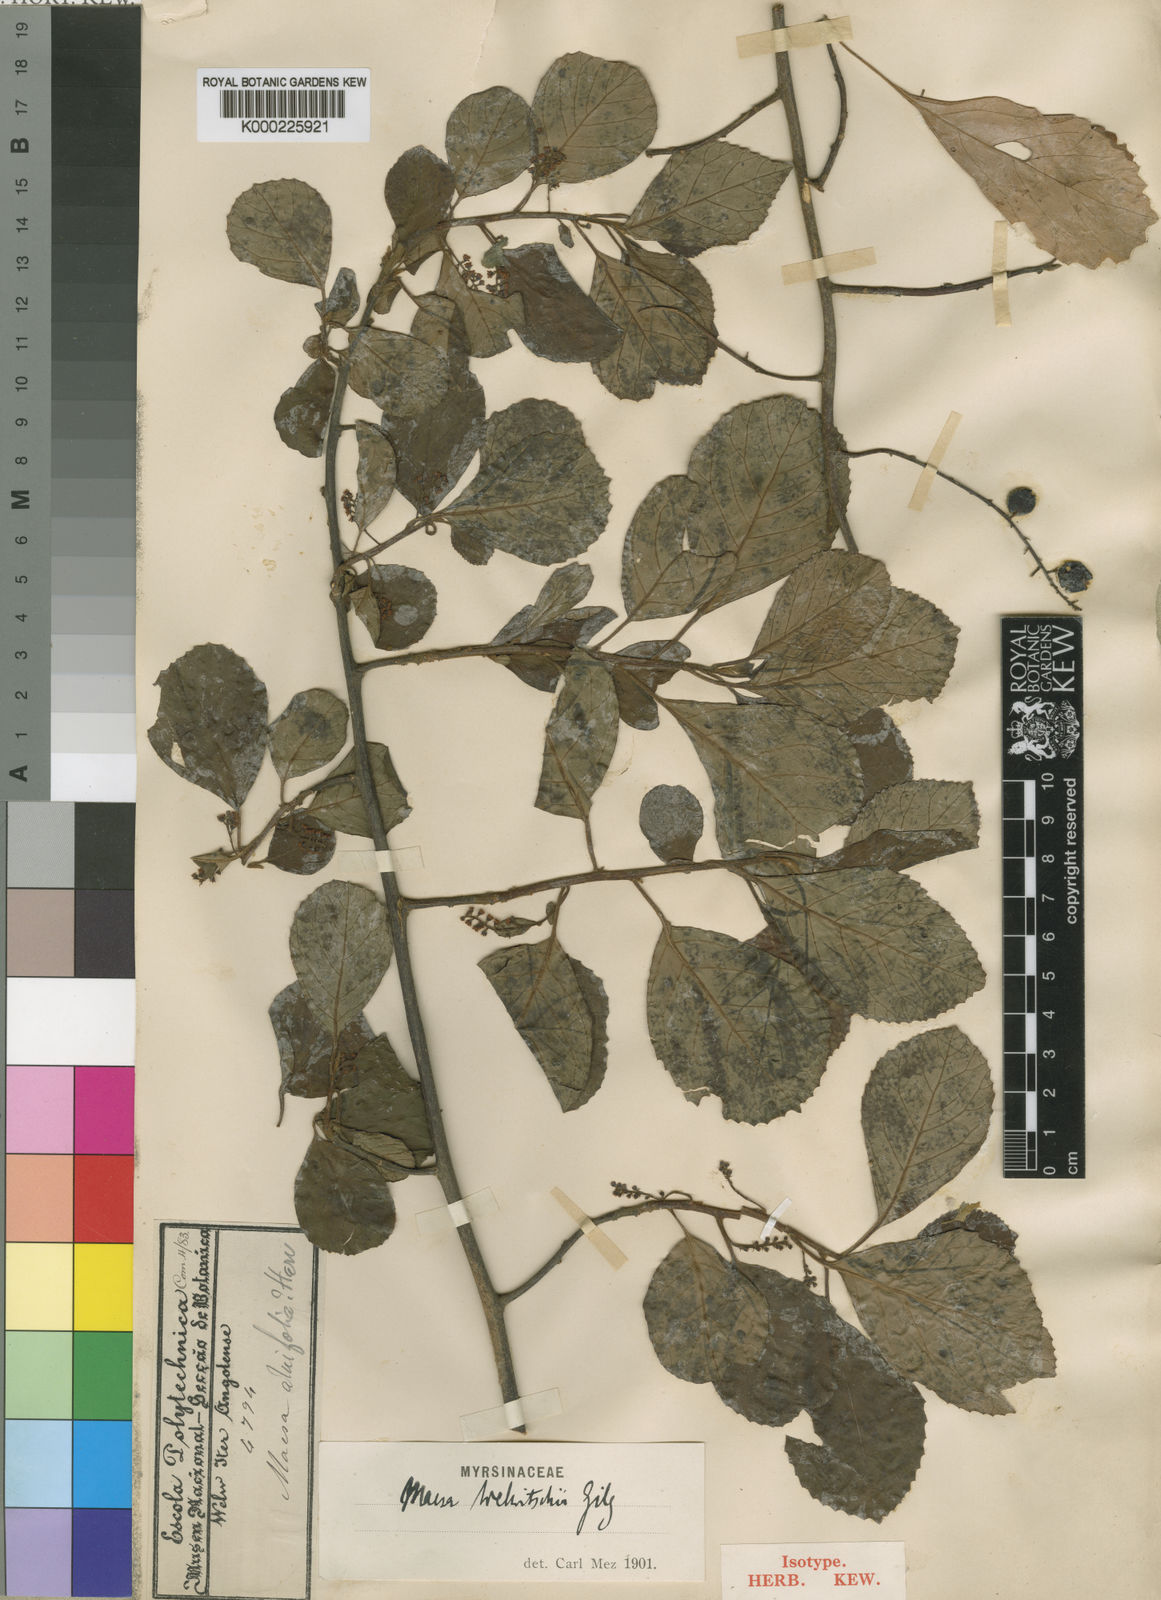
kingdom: Plantae
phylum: Tracheophyta
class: Magnoliopsida
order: Ericales
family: Primulaceae
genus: Maesa
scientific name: Maesa welwitschii
